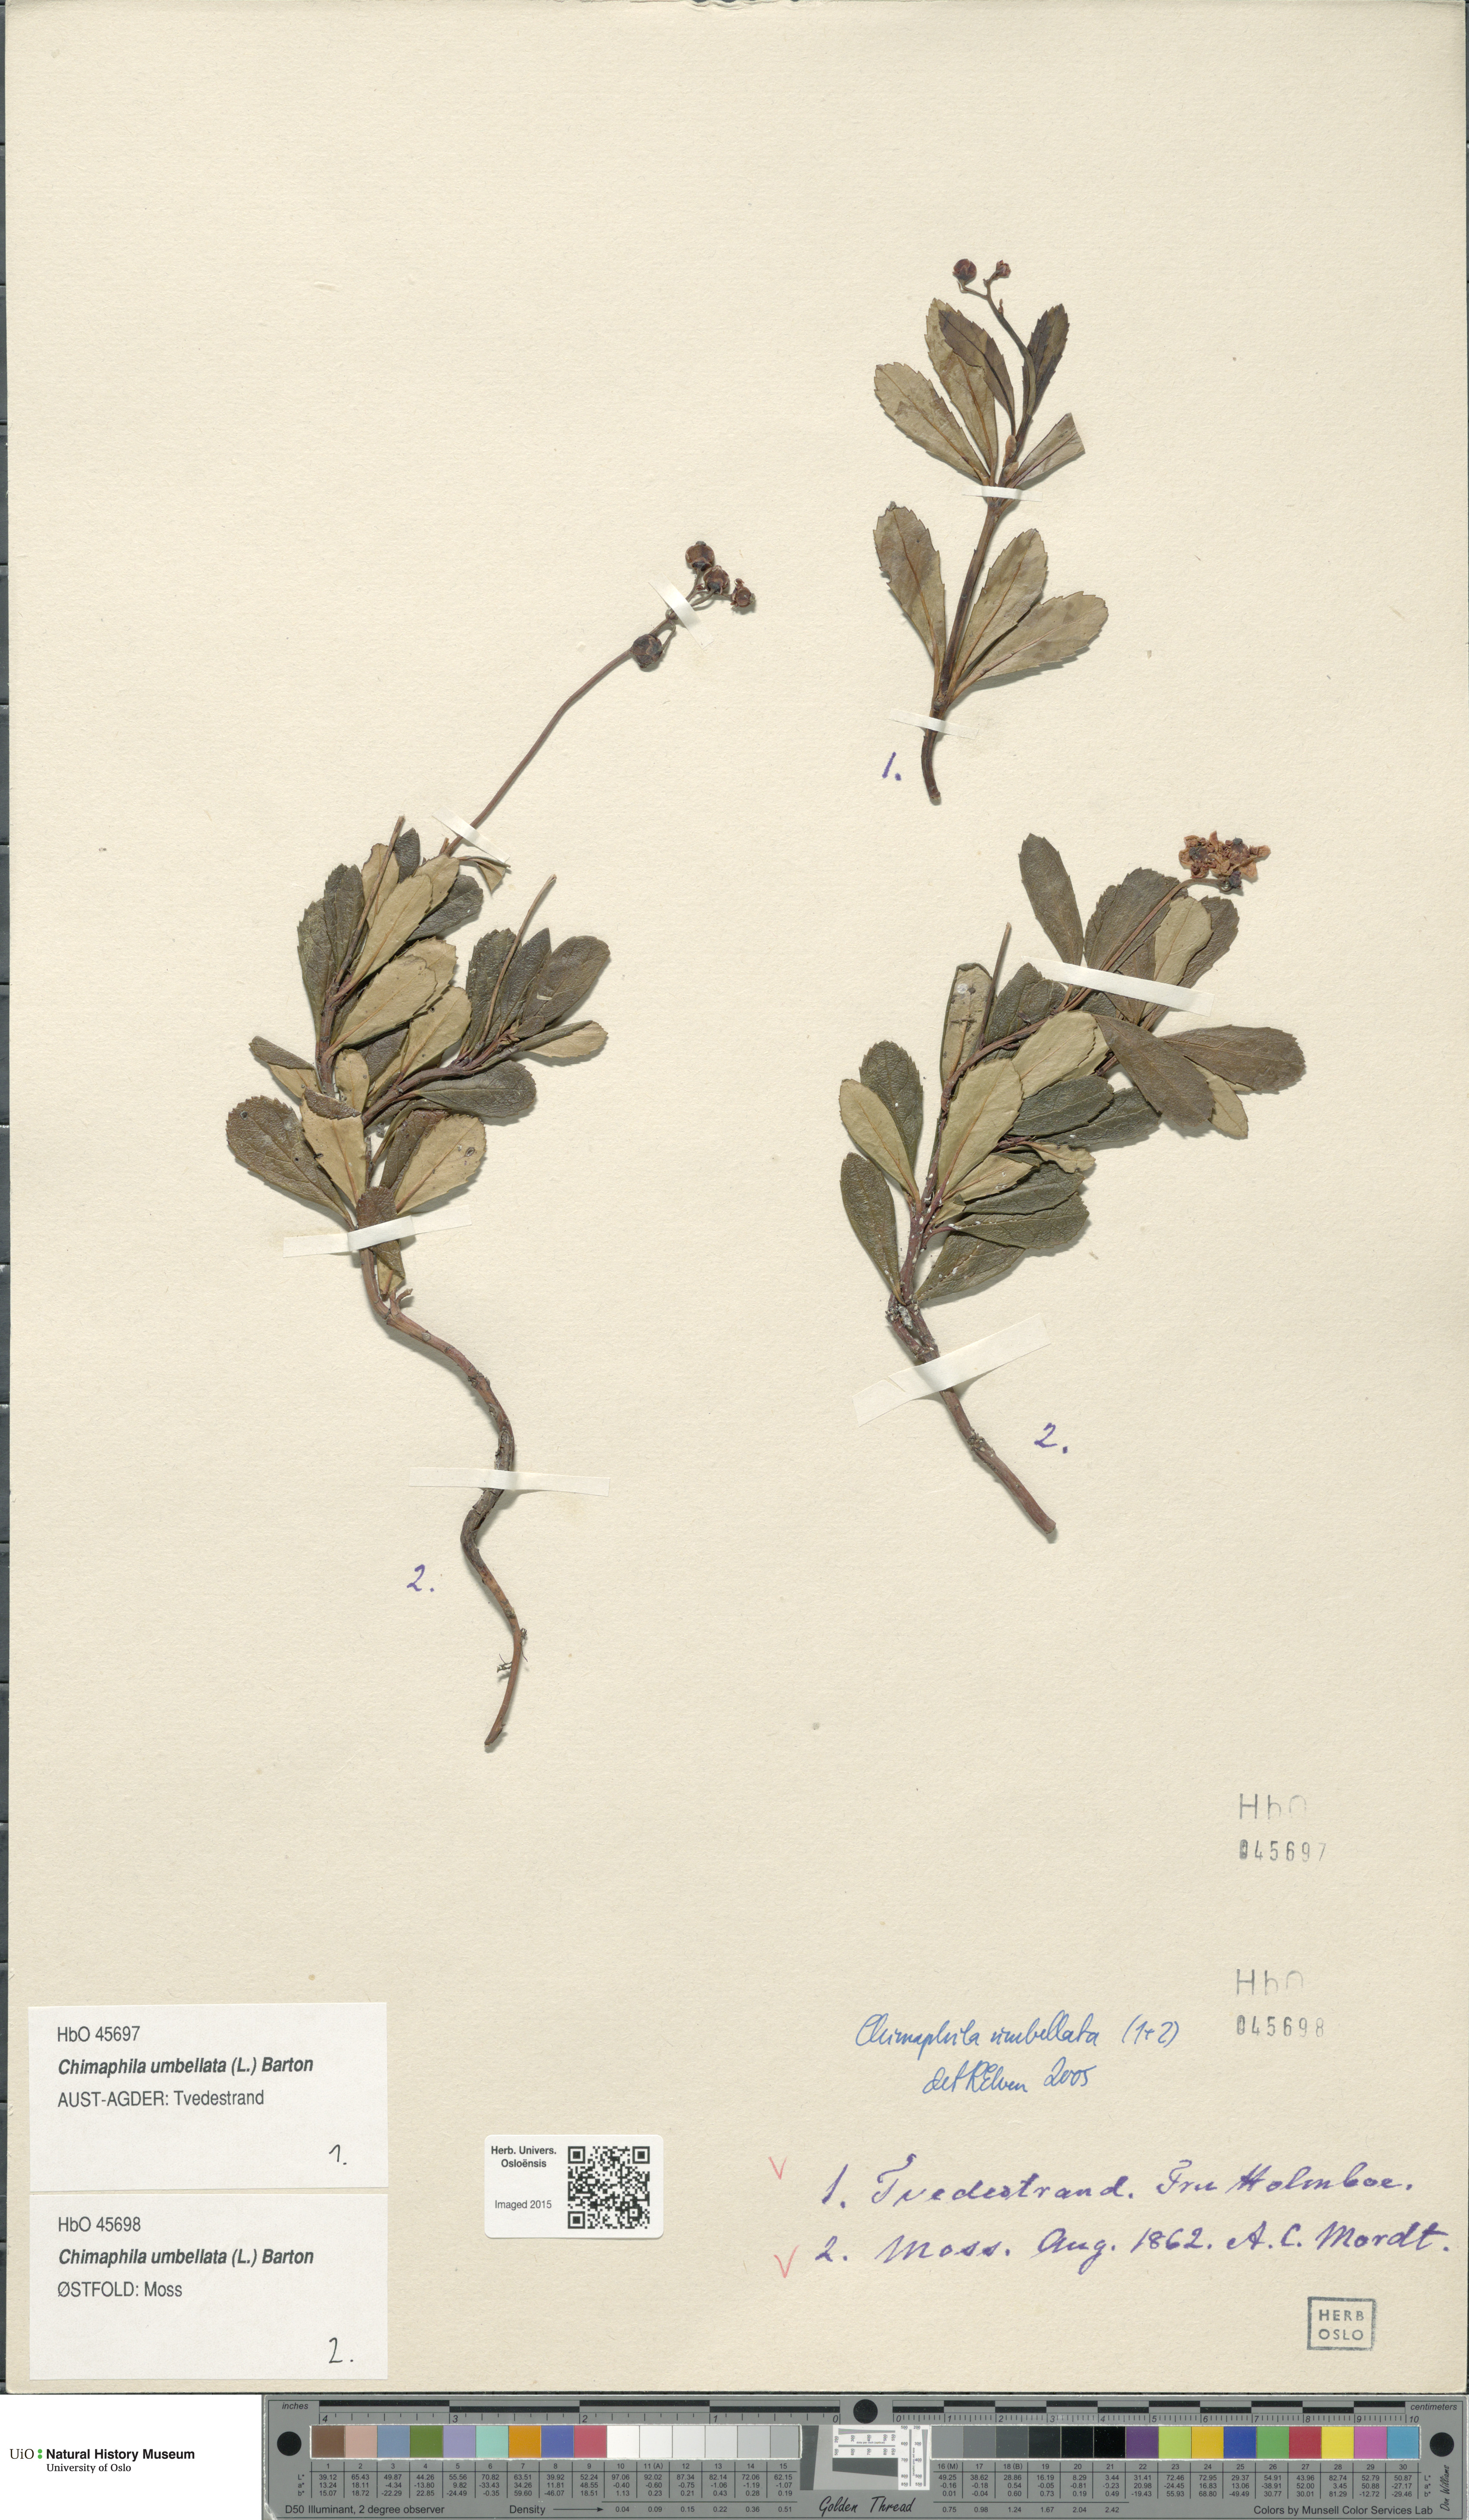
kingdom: Plantae
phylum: Tracheophyta
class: Magnoliopsida
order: Ericales
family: Ericaceae
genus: Chimaphila
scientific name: Chimaphila umbellata
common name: Pipsissewa
